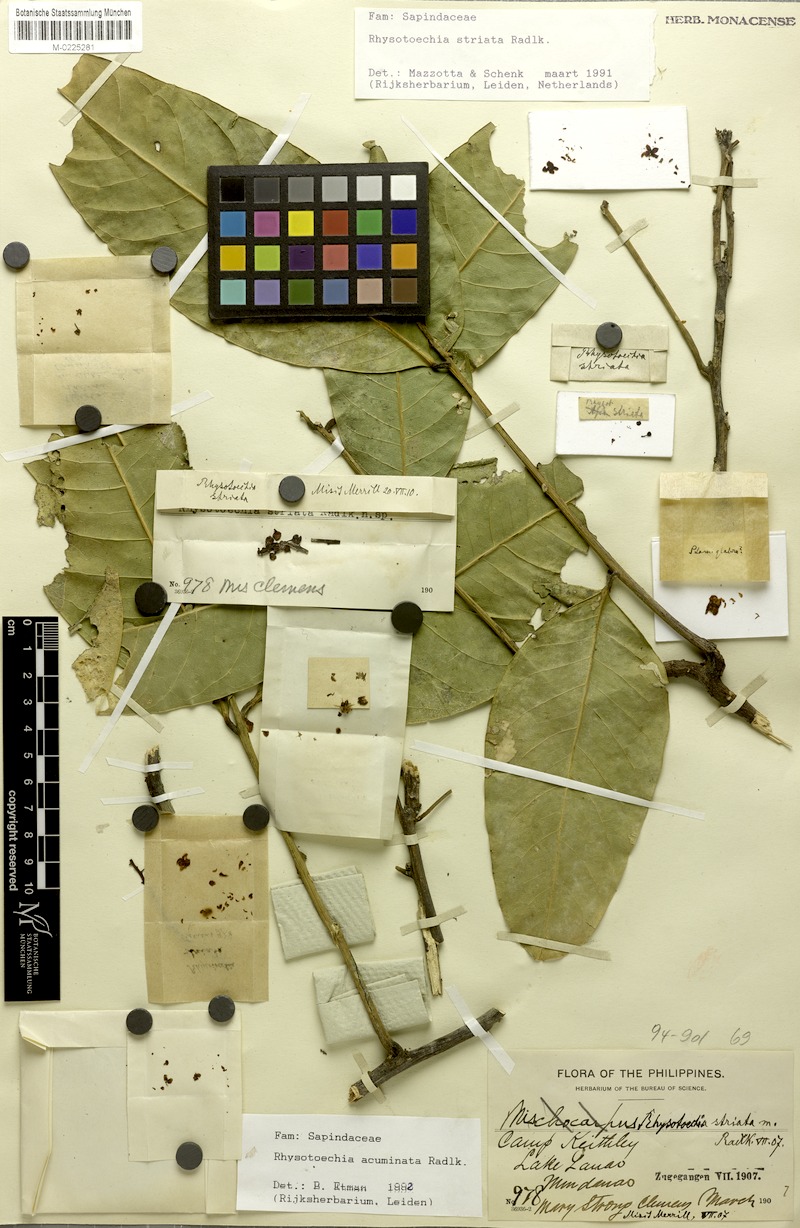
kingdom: Plantae
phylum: Tracheophyta
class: Magnoliopsida
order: Sapindales
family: Sapindaceae
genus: Rhysotoechia
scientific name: Rhysotoechia ramiflora
